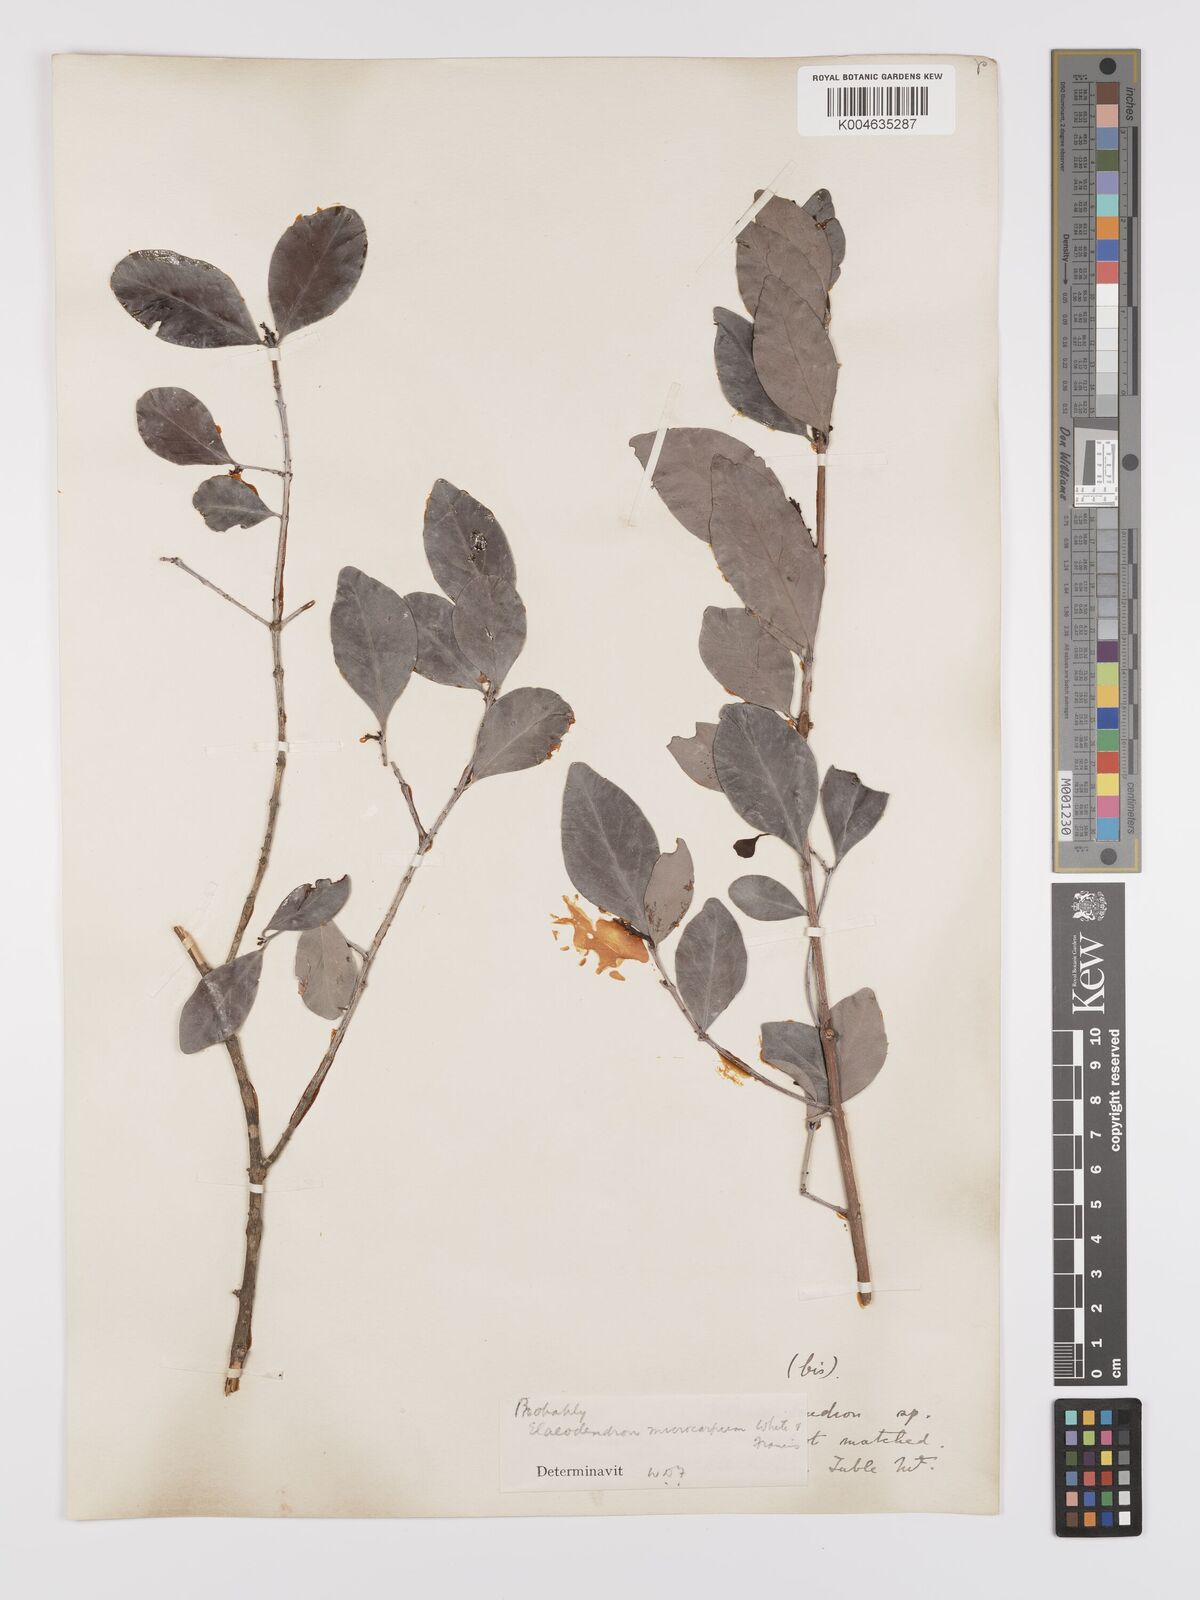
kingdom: Plantae
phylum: Tracheophyta
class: Magnoliopsida
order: Celastrales
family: Celastraceae
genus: Pleurostylia
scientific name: Pleurostylia opposita
